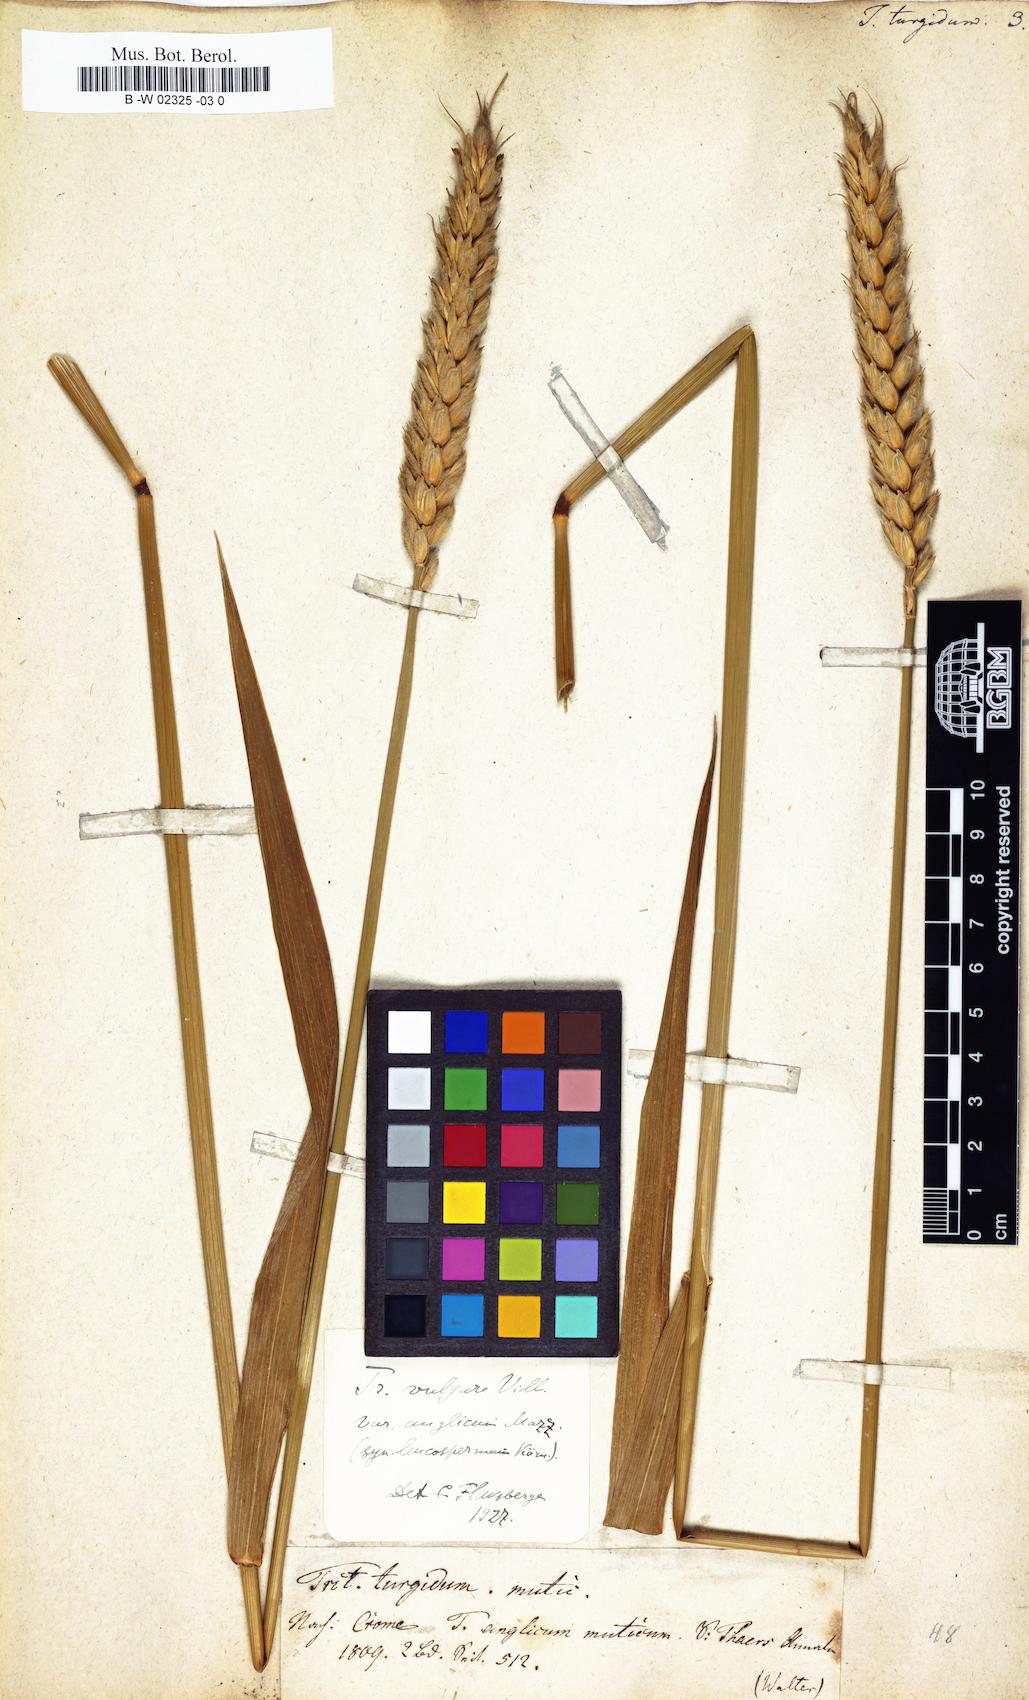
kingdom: Plantae
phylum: Tracheophyta
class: Liliopsida
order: Poales
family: Poaceae
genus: Triticum
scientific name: Triticum turgidum
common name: Rivet wheat
